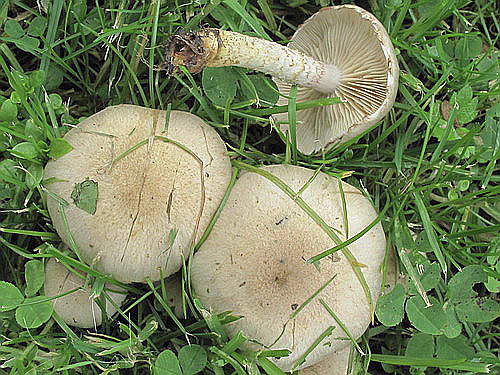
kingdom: Fungi
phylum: Basidiomycota
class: Agaricomycetes
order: Agaricales
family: Strophariaceae
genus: Pholiota
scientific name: Pholiota gummosa
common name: grøngul skælhat
